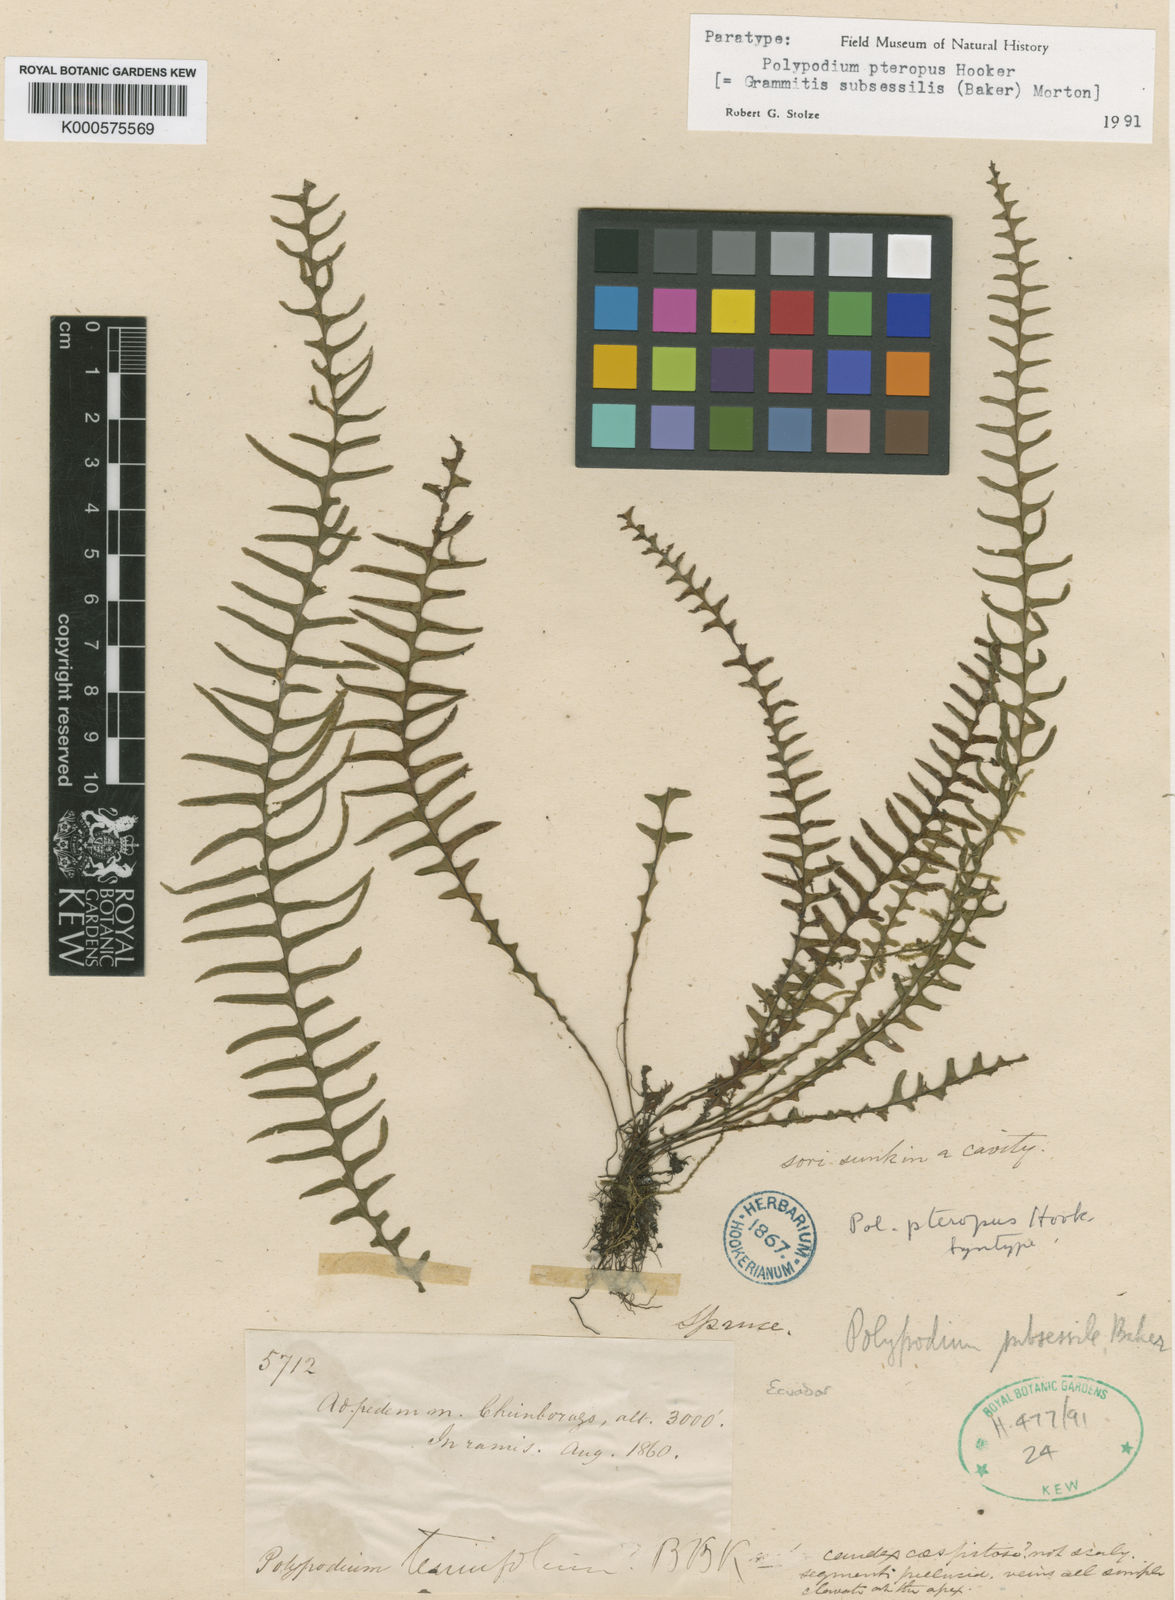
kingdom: Plantae
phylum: Tracheophyta
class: Polypodiopsida
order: Polypodiales
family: Polypodiaceae
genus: Lellingeria
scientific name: Lellingeria subsessilis
